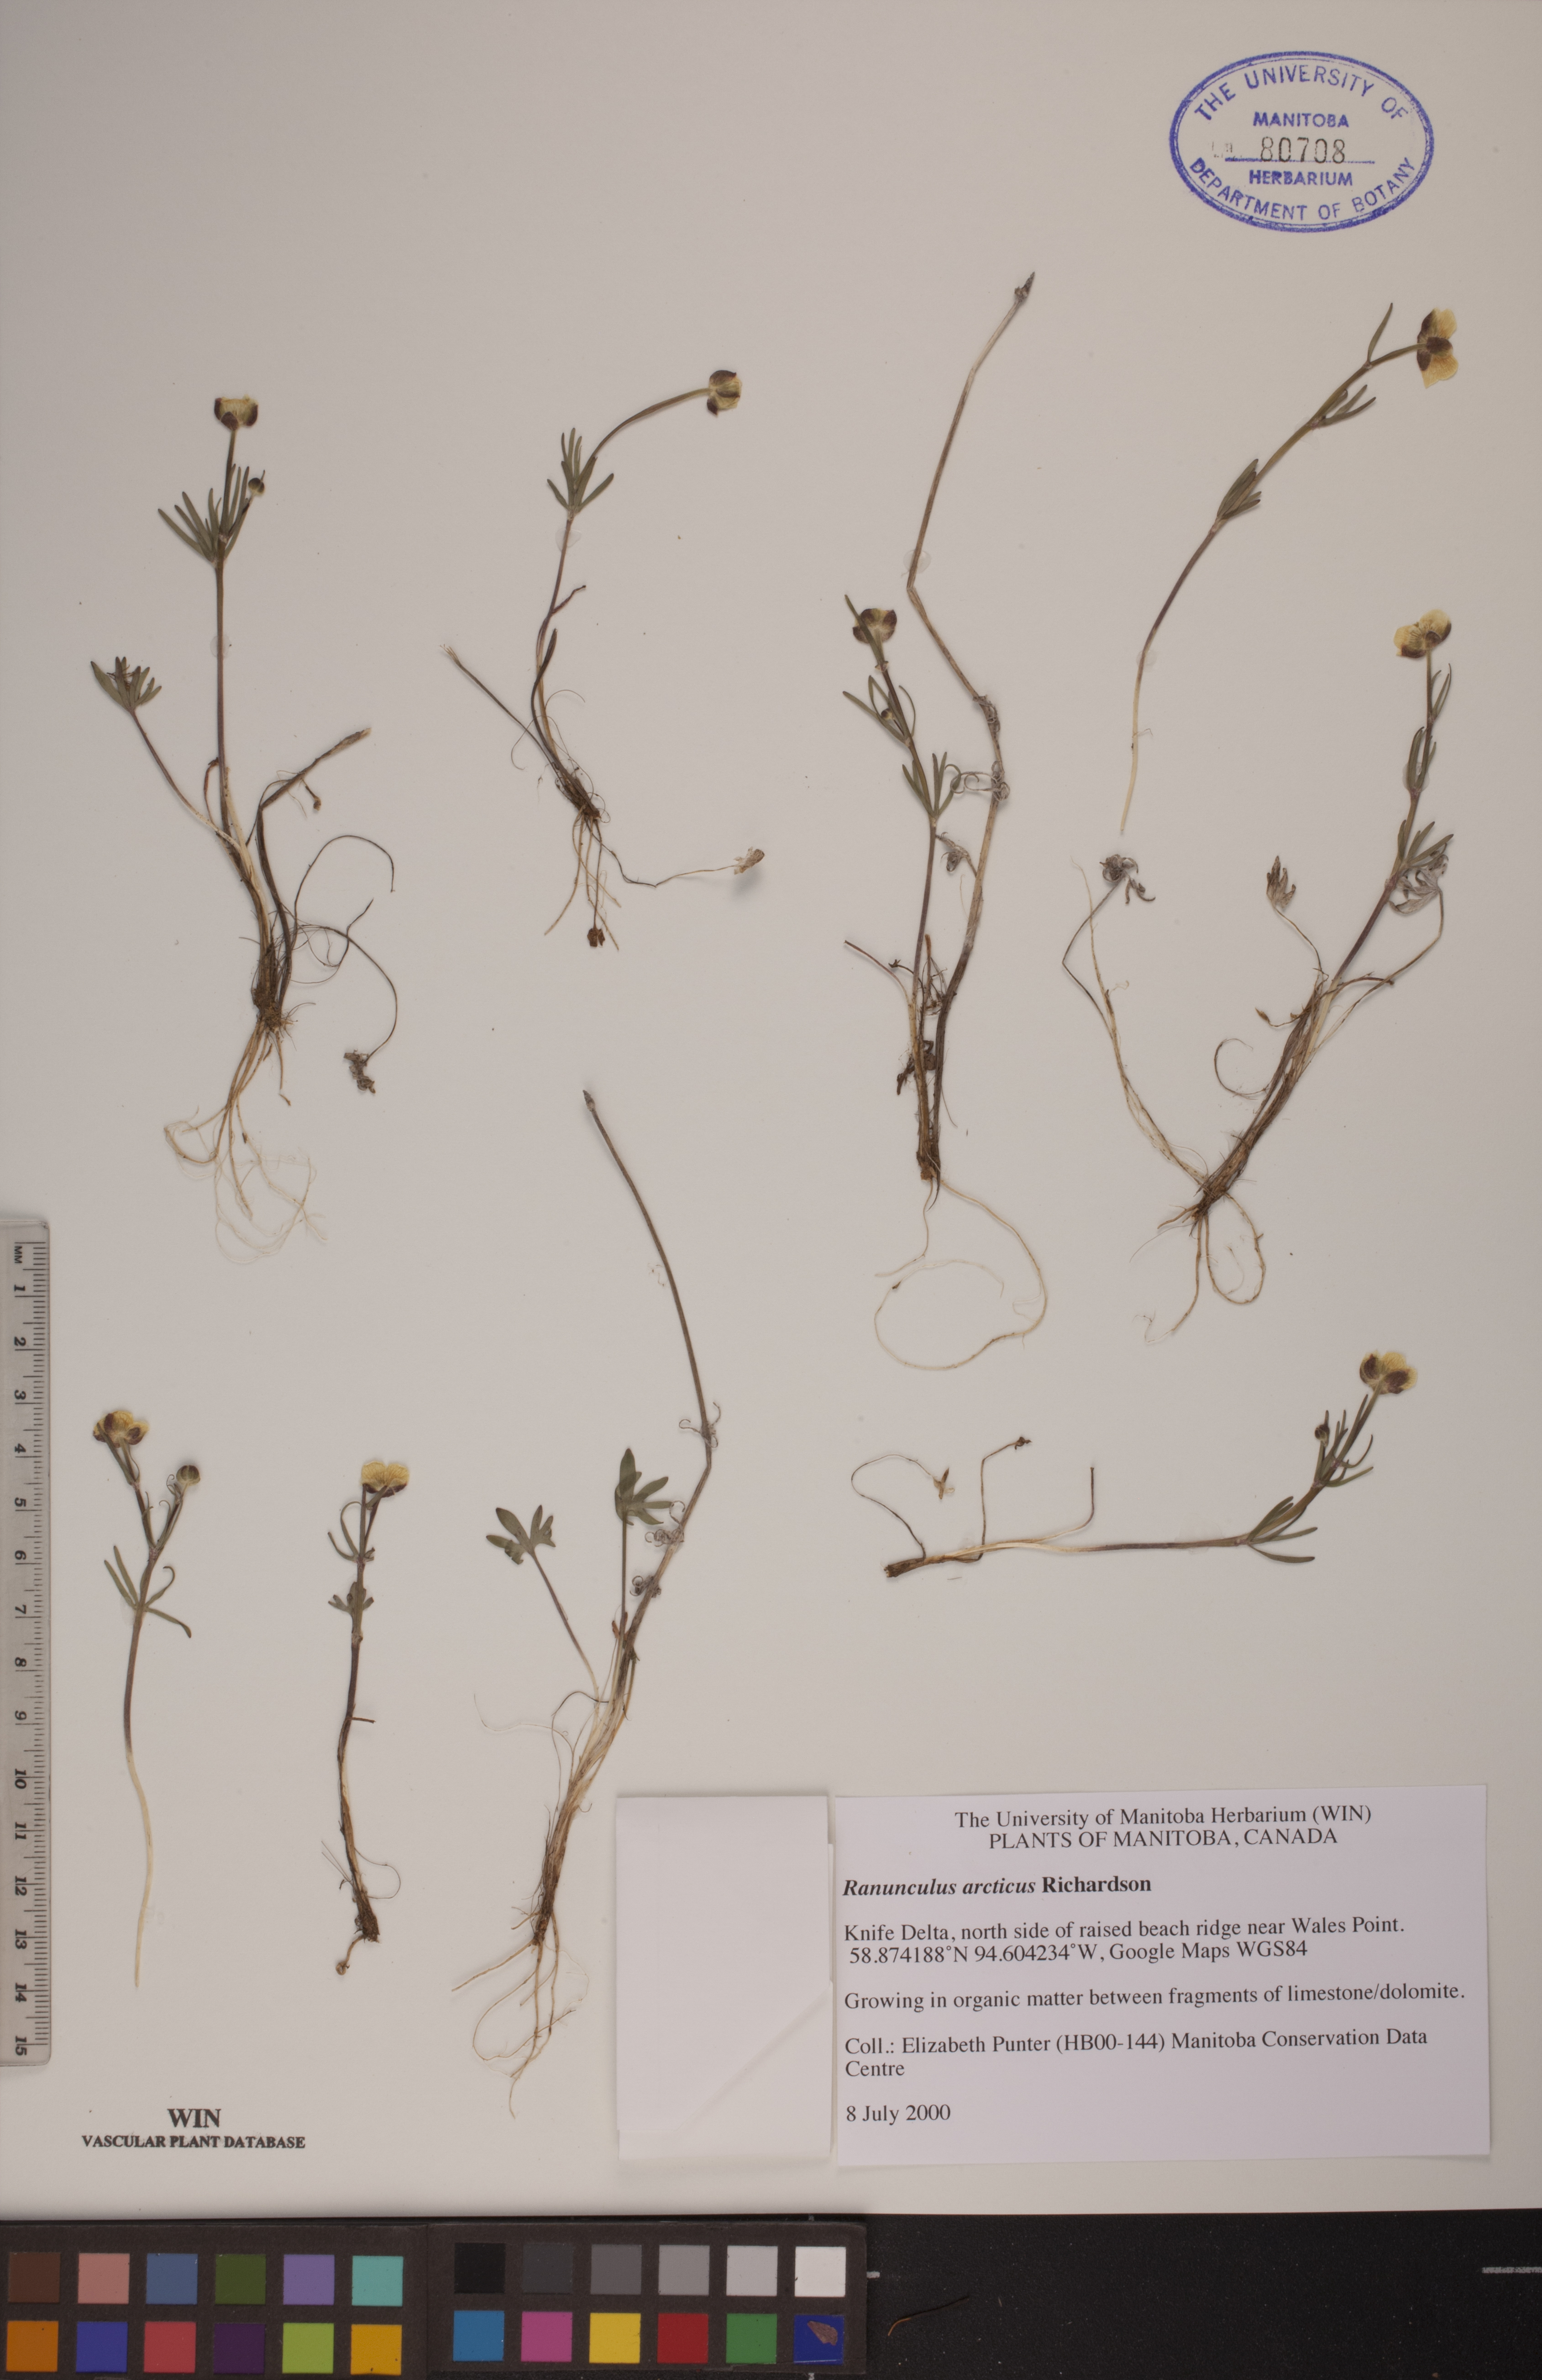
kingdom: Plantae
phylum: Tracheophyta
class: Magnoliopsida
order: Ranunculales
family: Ranunculaceae
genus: Ranunculus
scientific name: Ranunculus arcticus
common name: Bird's-foot buttercup
